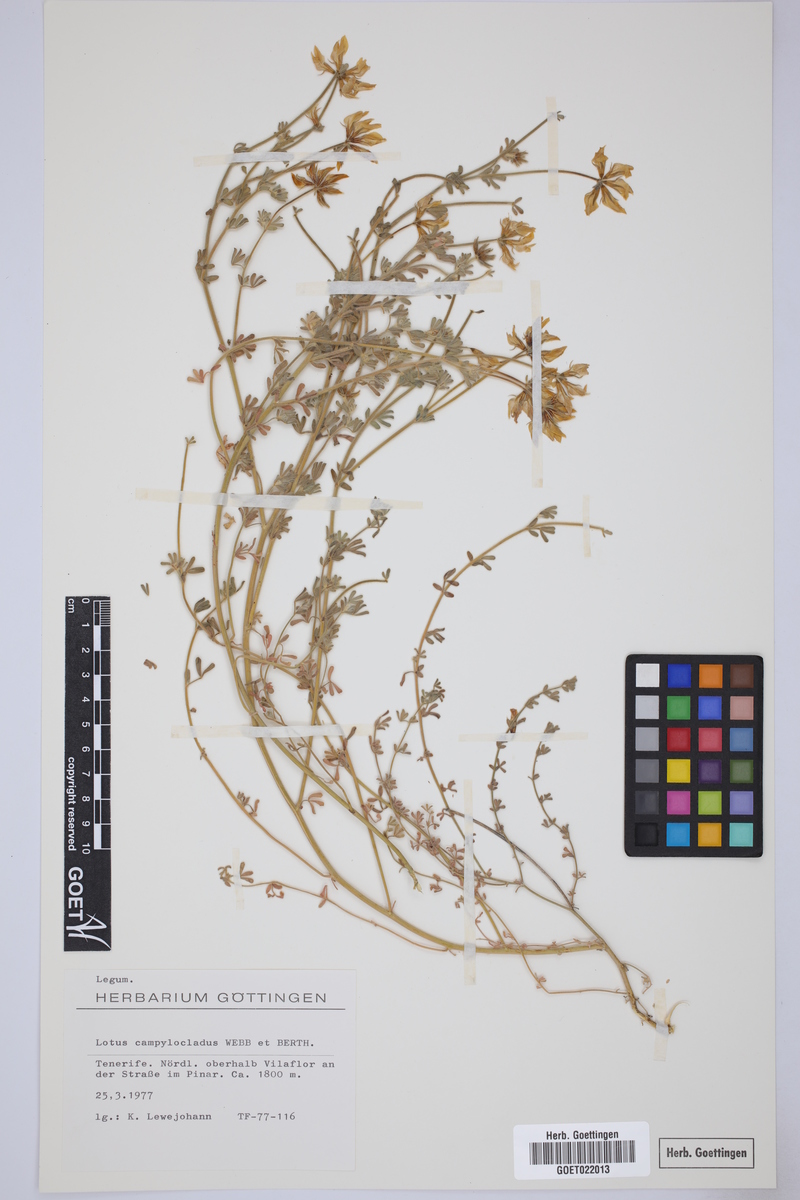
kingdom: Plantae
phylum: Tracheophyta
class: Magnoliopsida
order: Fabales
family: Fabaceae
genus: Lotus
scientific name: Lotus campylocladus
